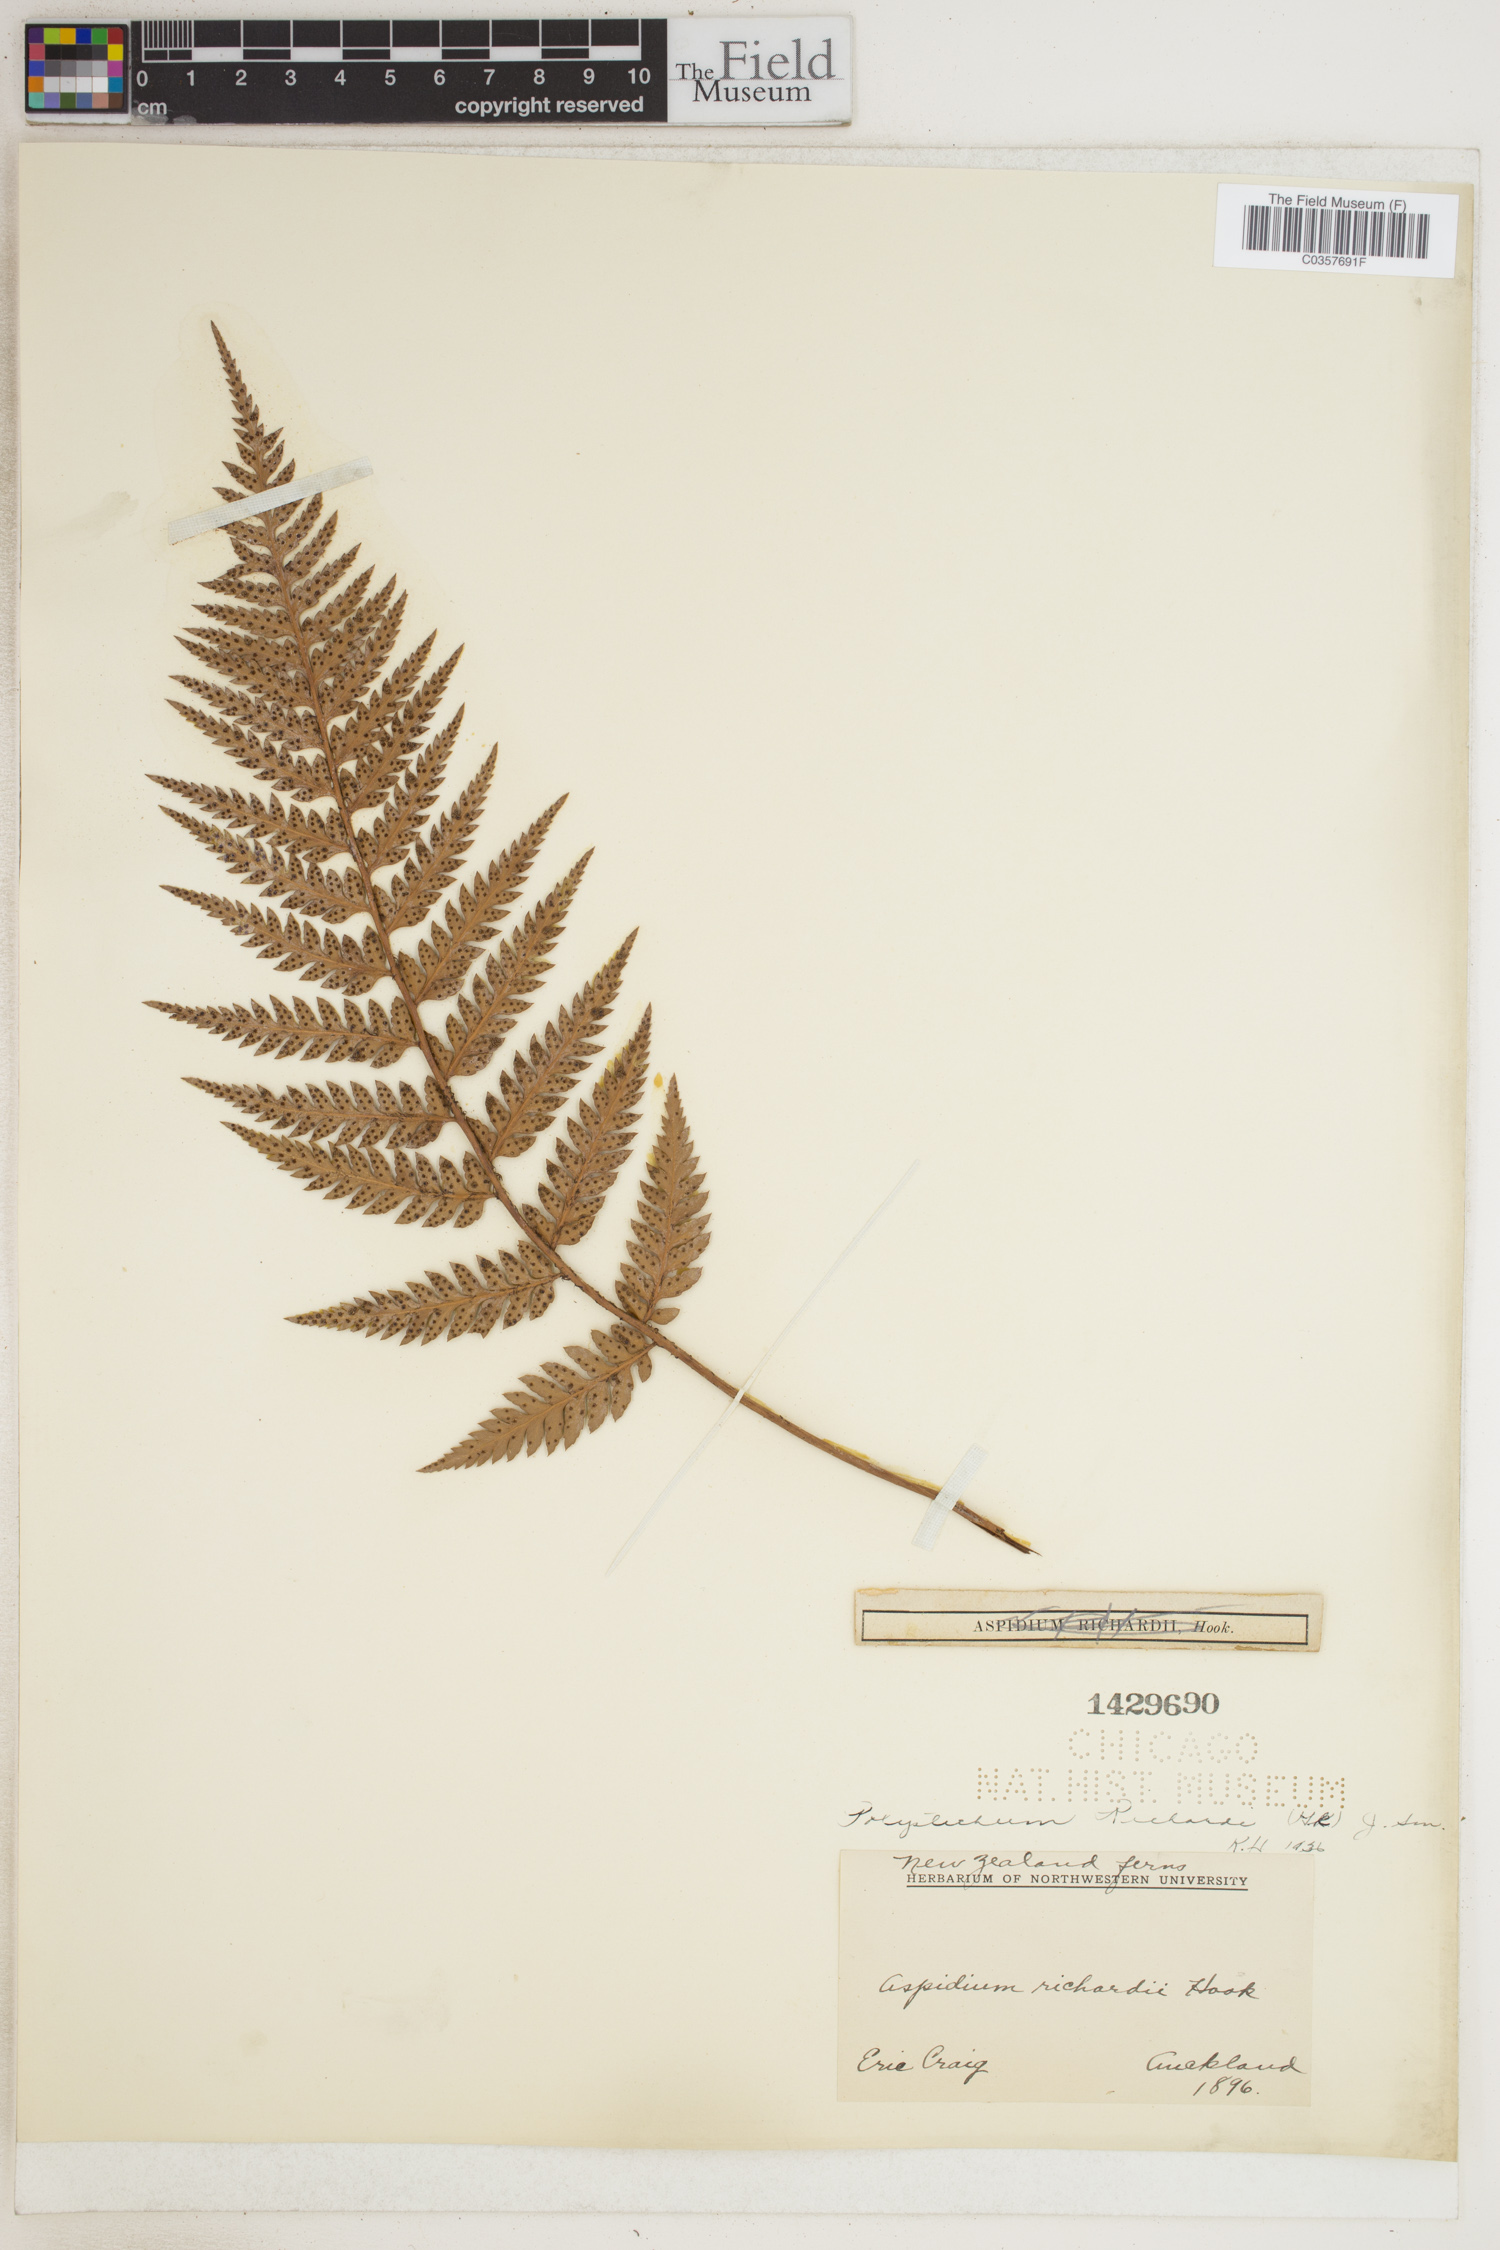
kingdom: Plantae
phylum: Tracheophyta
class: Polypodiopsida
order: Polypodiales
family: Dryopteridaceae
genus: Polystichum
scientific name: Polystichum neozelandicum
